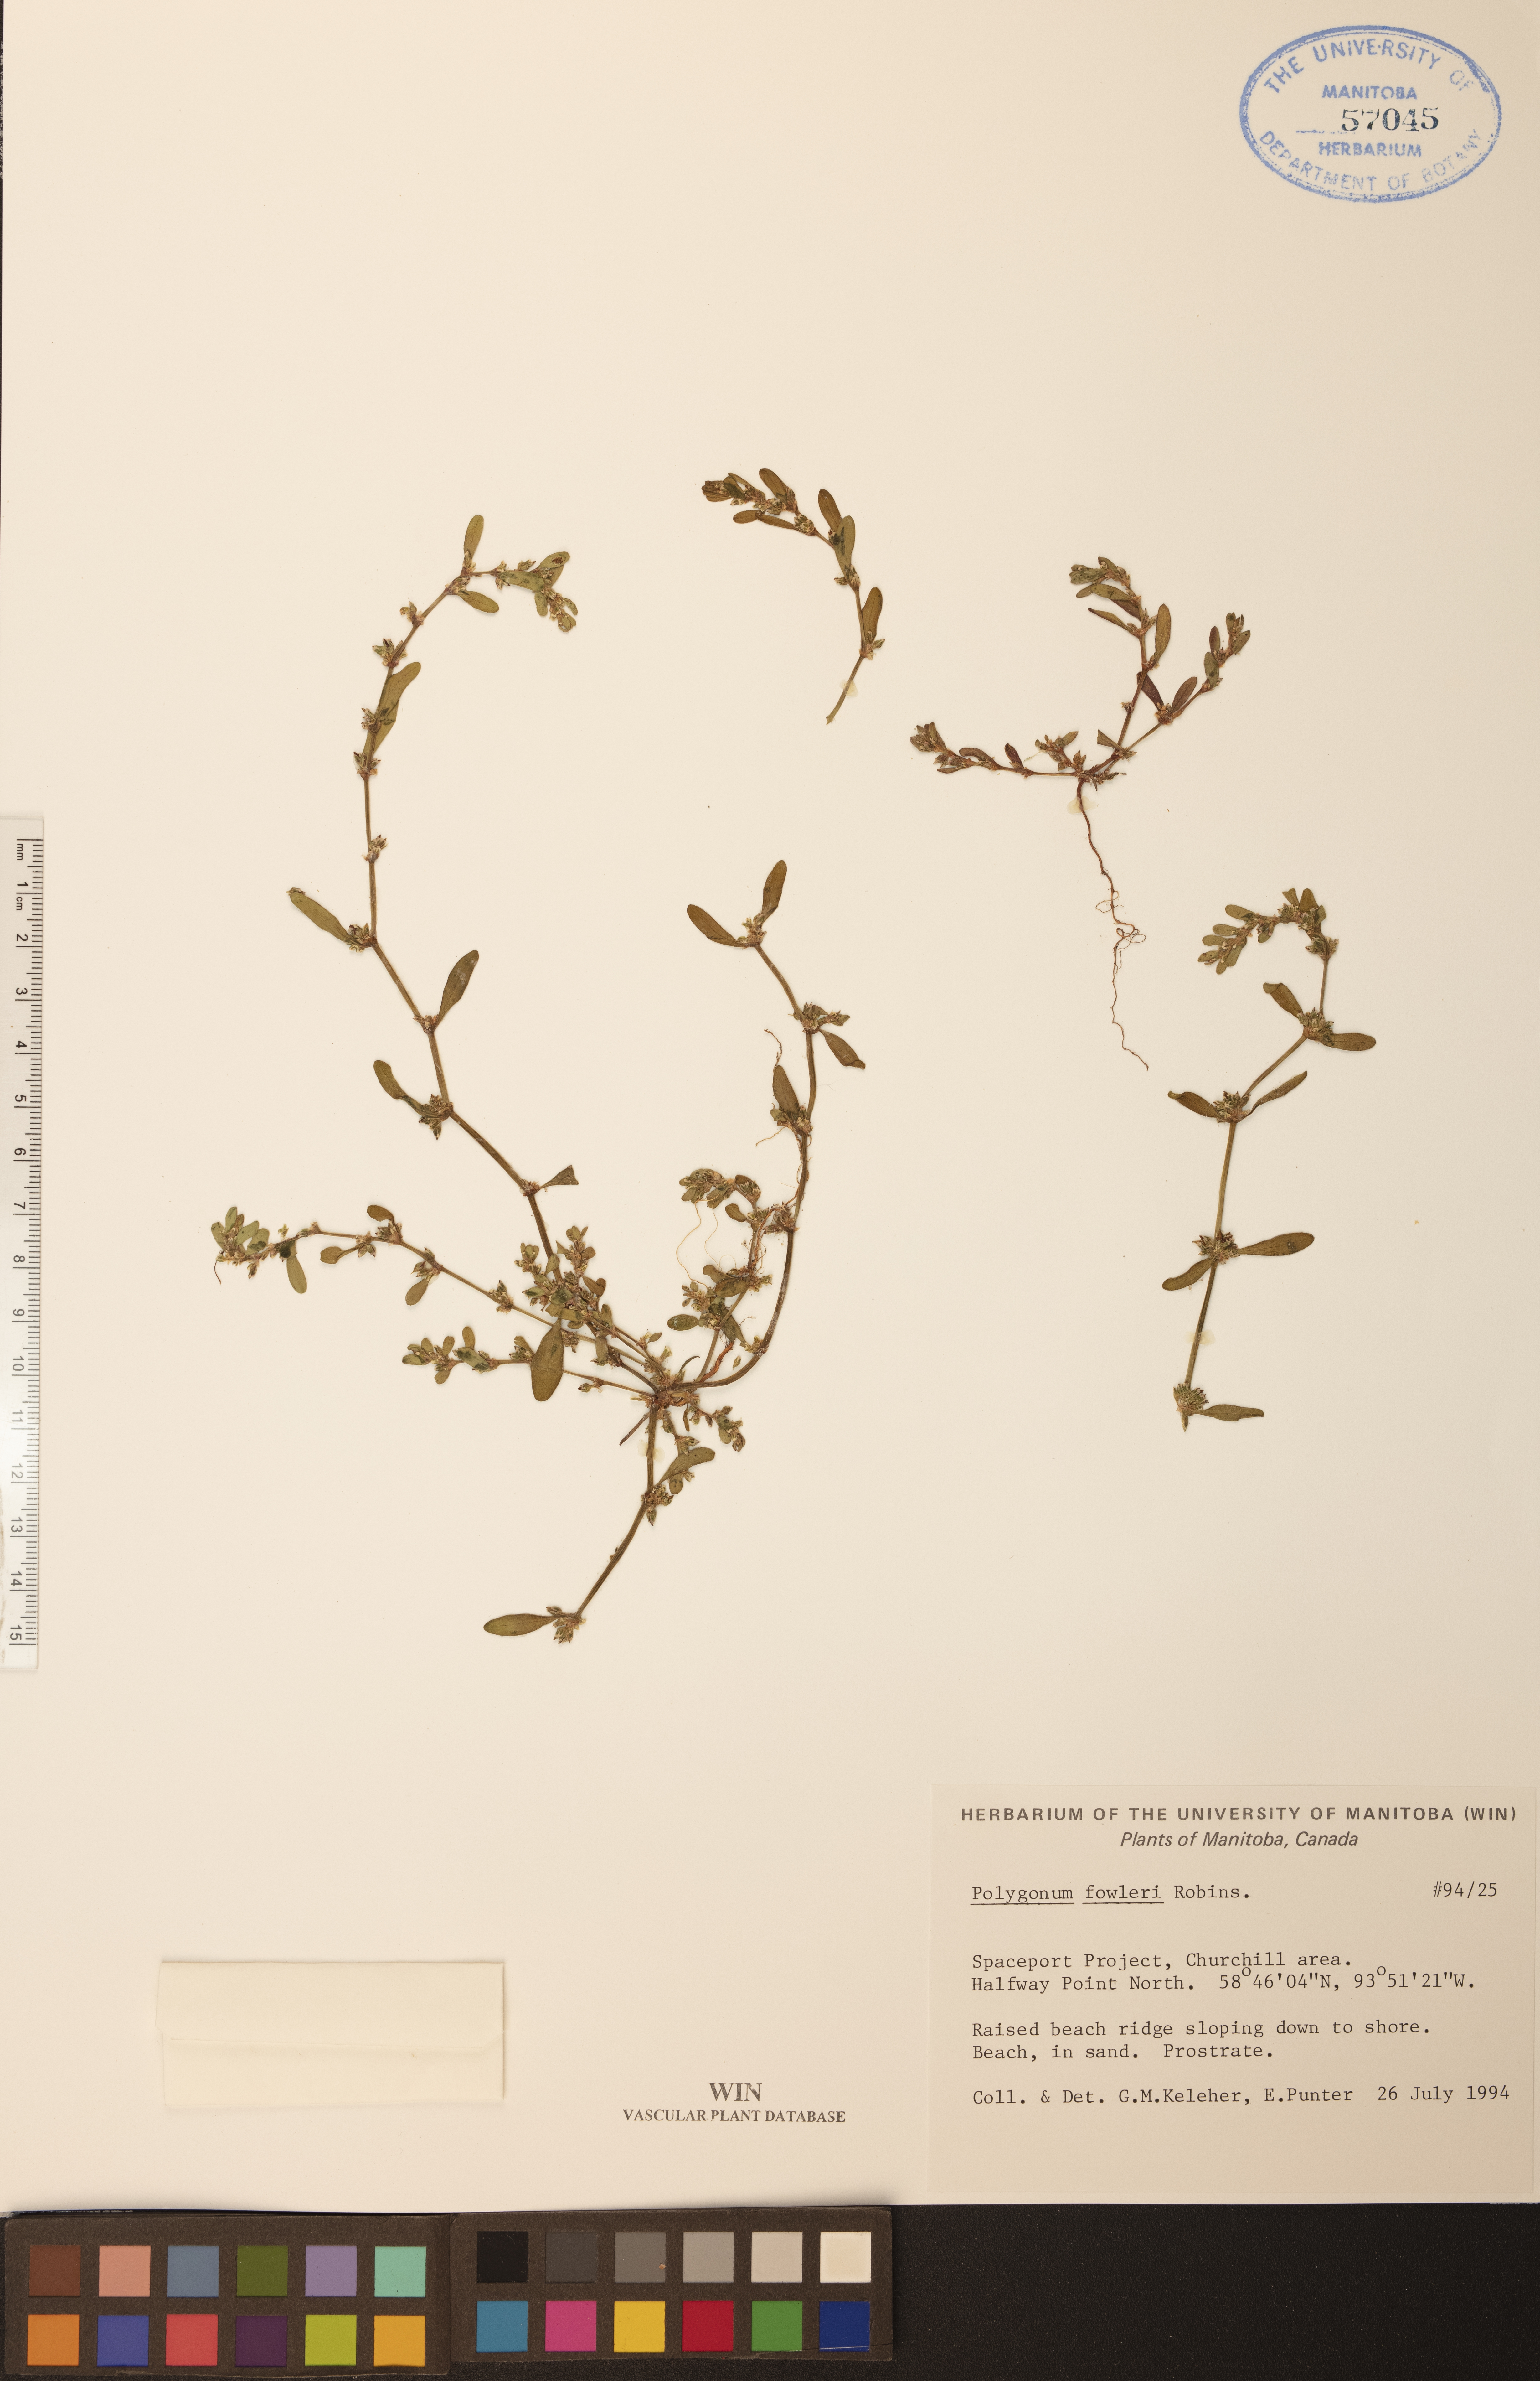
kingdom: Plantae
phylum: Tracheophyta
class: Magnoliopsida
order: Caryophyllales
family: Polygonaceae
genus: Polygonum
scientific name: Polygonum fowleri
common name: Fowler's knotweed
